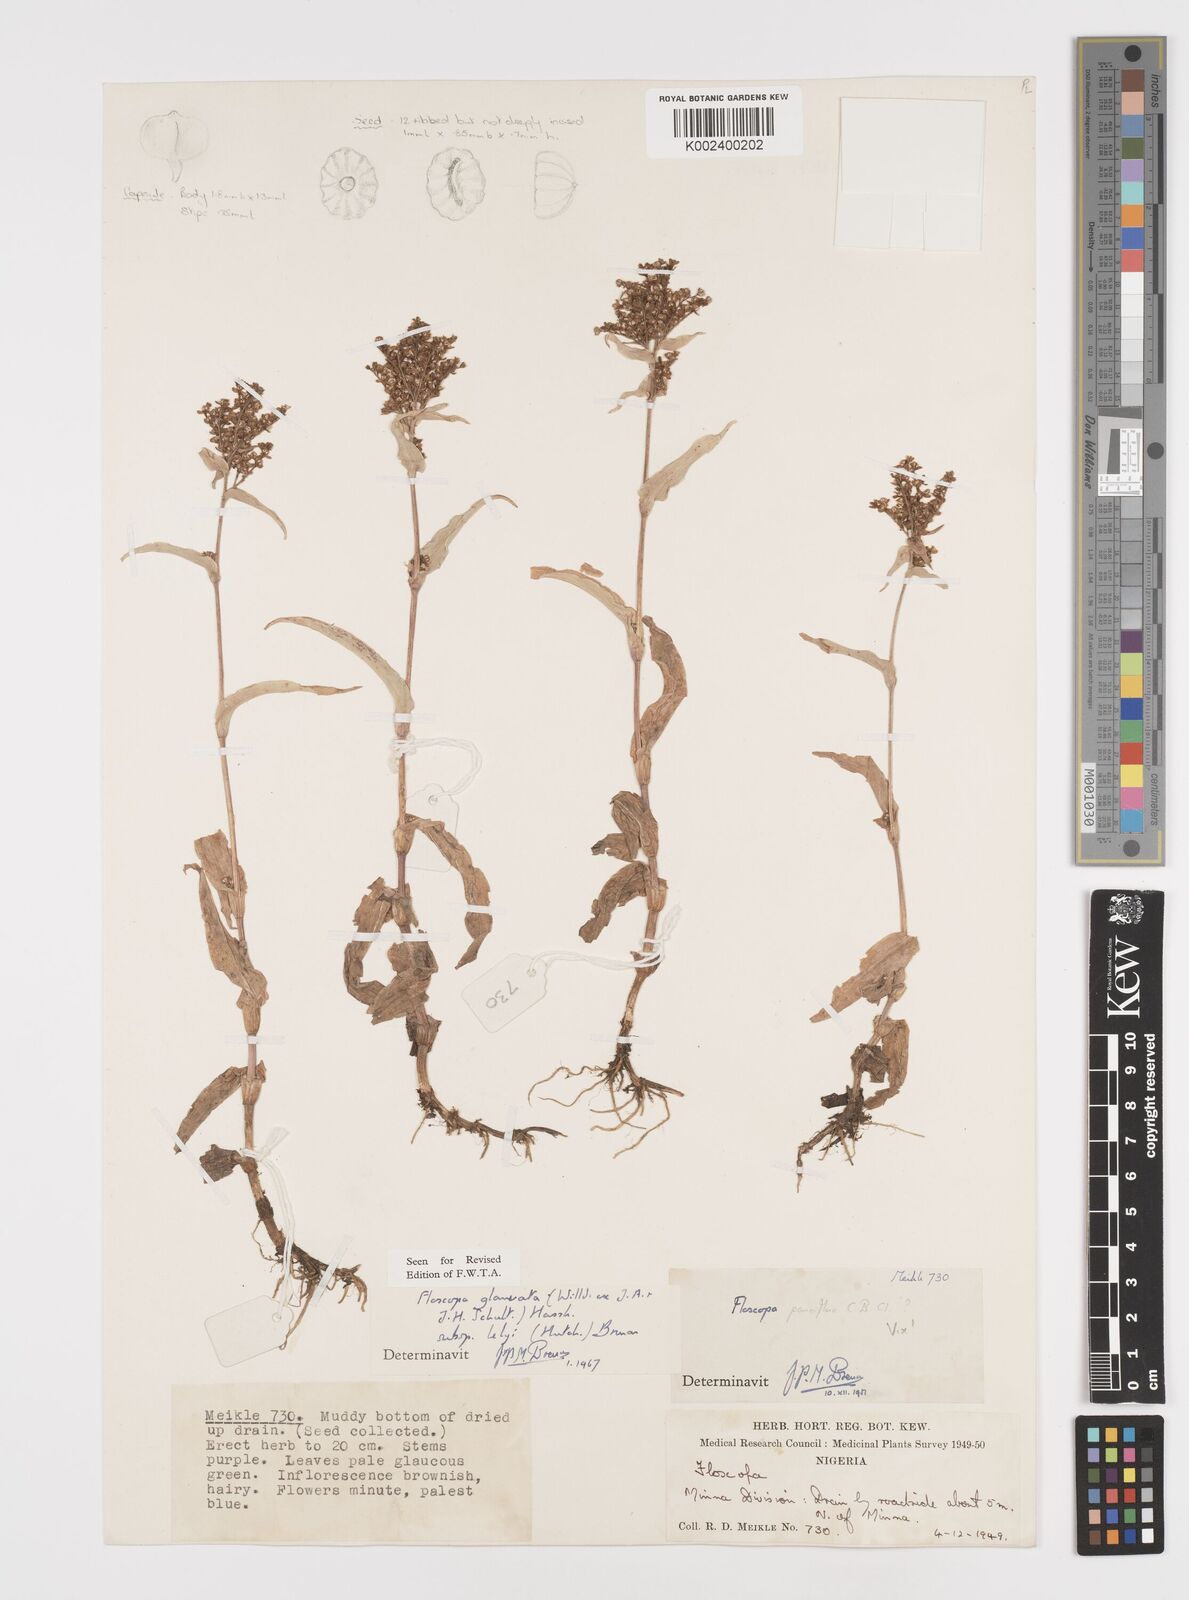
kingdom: Plantae
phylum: Tracheophyta
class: Liliopsida
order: Commelinales
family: Commelinaceae
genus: Floscopa
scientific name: Floscopa glomerata
